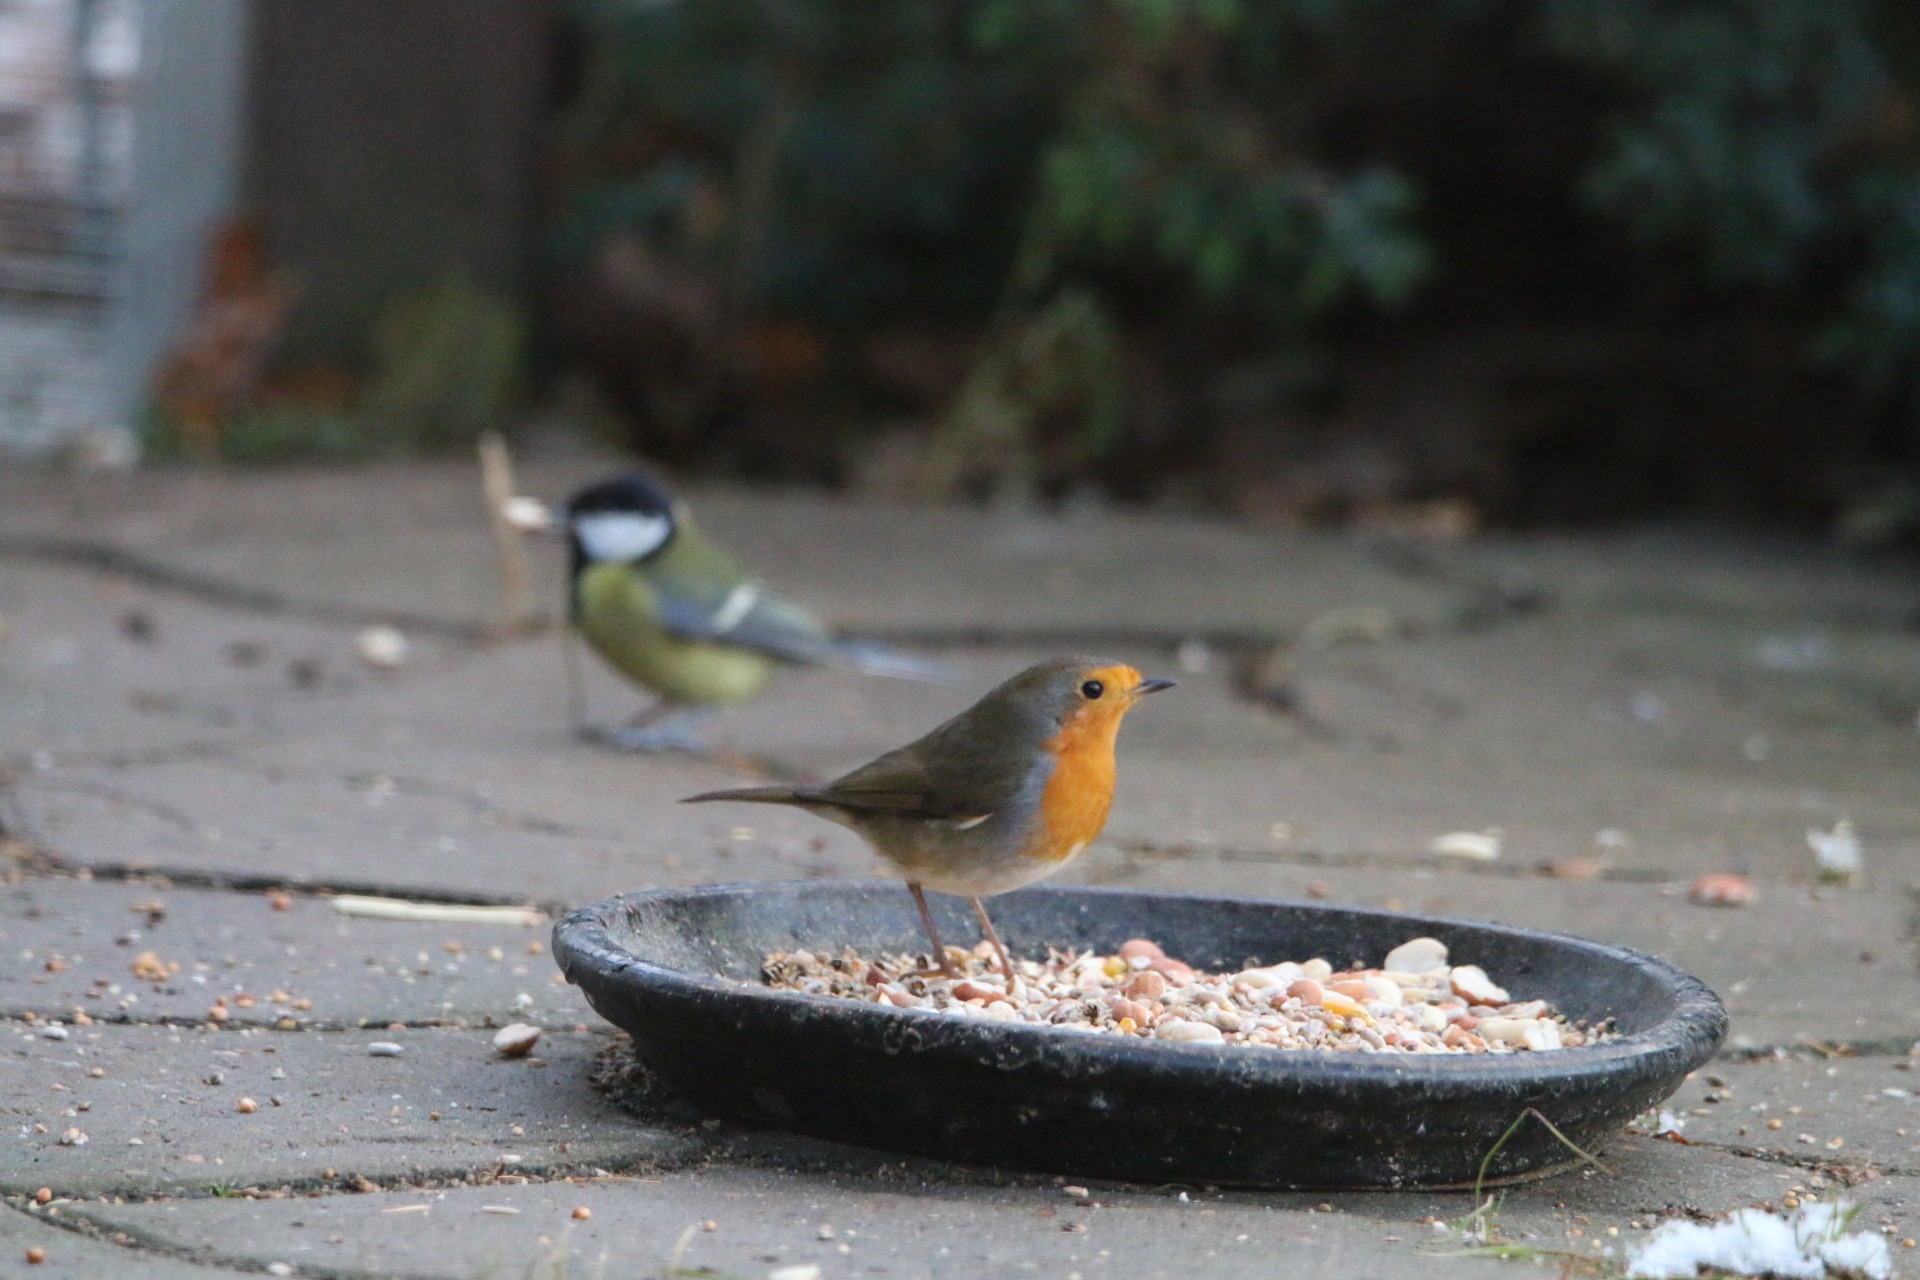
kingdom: Animalia
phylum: Chordata
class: Aves
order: Passeriformes
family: Muscicapidae
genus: Erithacus
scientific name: Erithacus rubecula
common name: Rødhals/rødkælk
